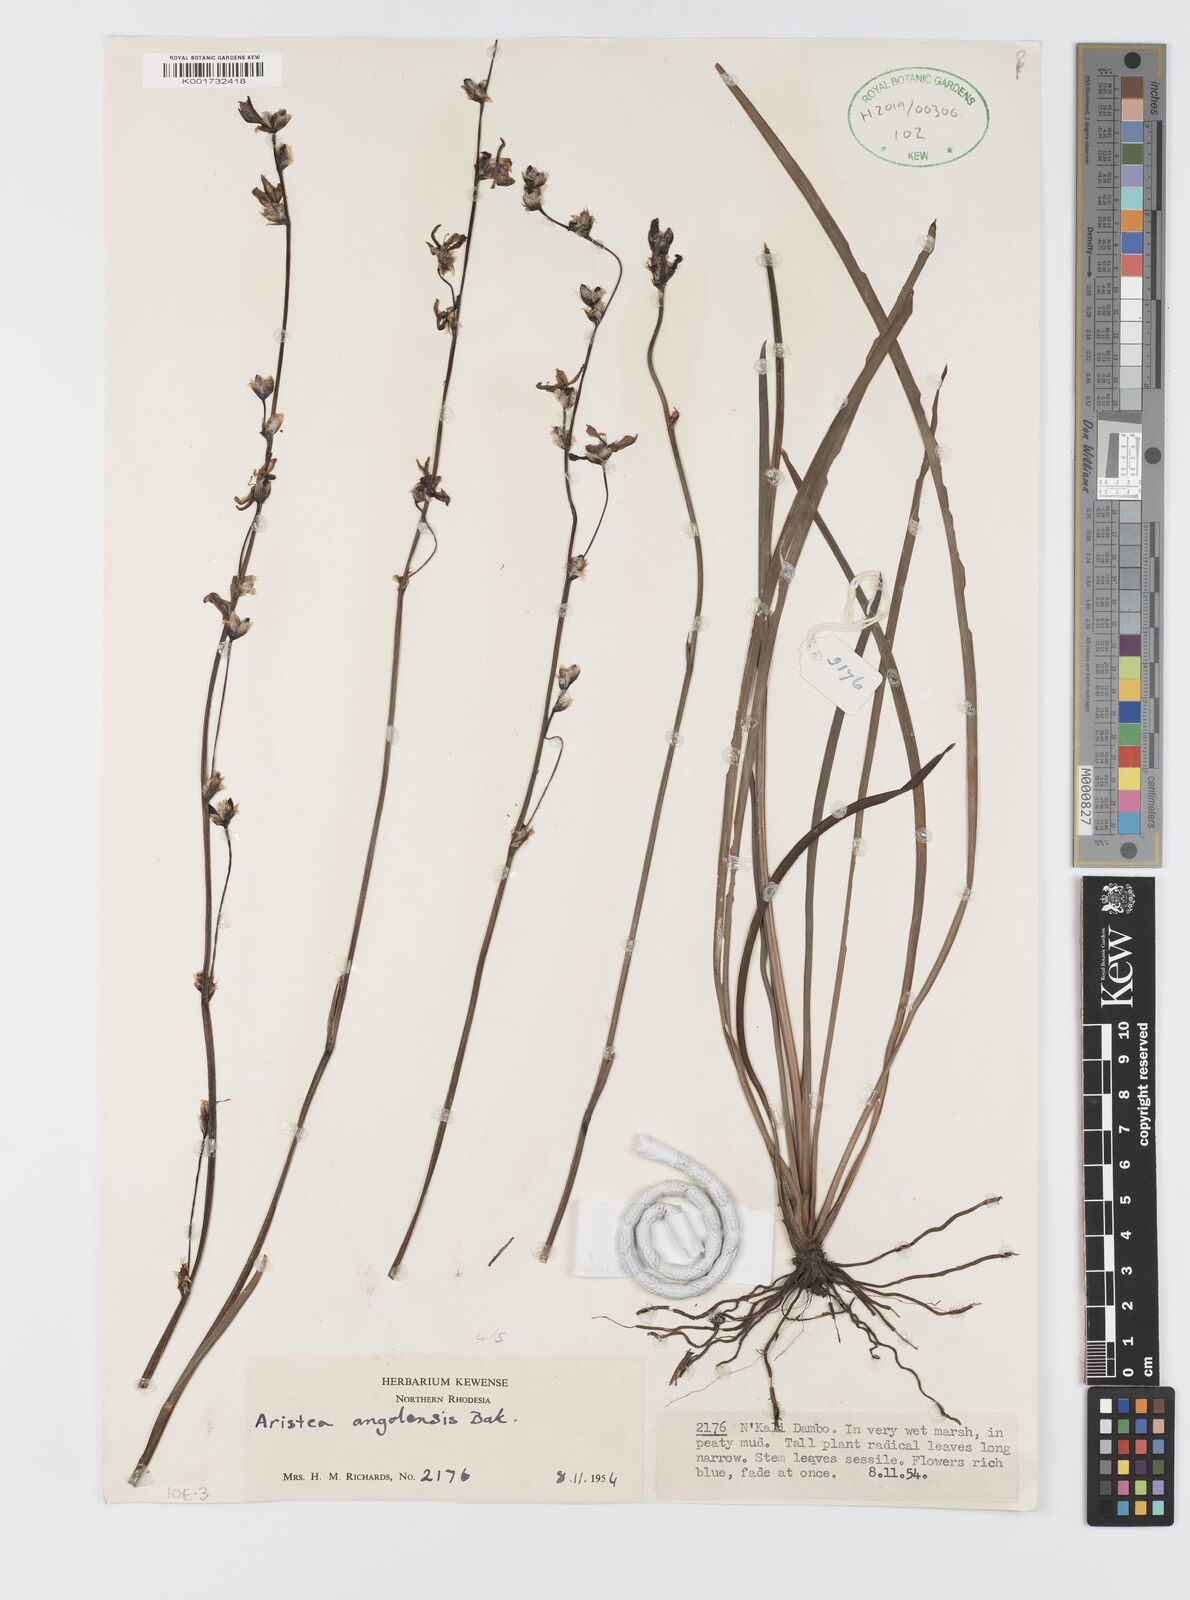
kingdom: Plantae
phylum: Tracheophyta
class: Liliopsida
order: Asparagales
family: Iridaceae
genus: Aristea
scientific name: Aristea angolensis
